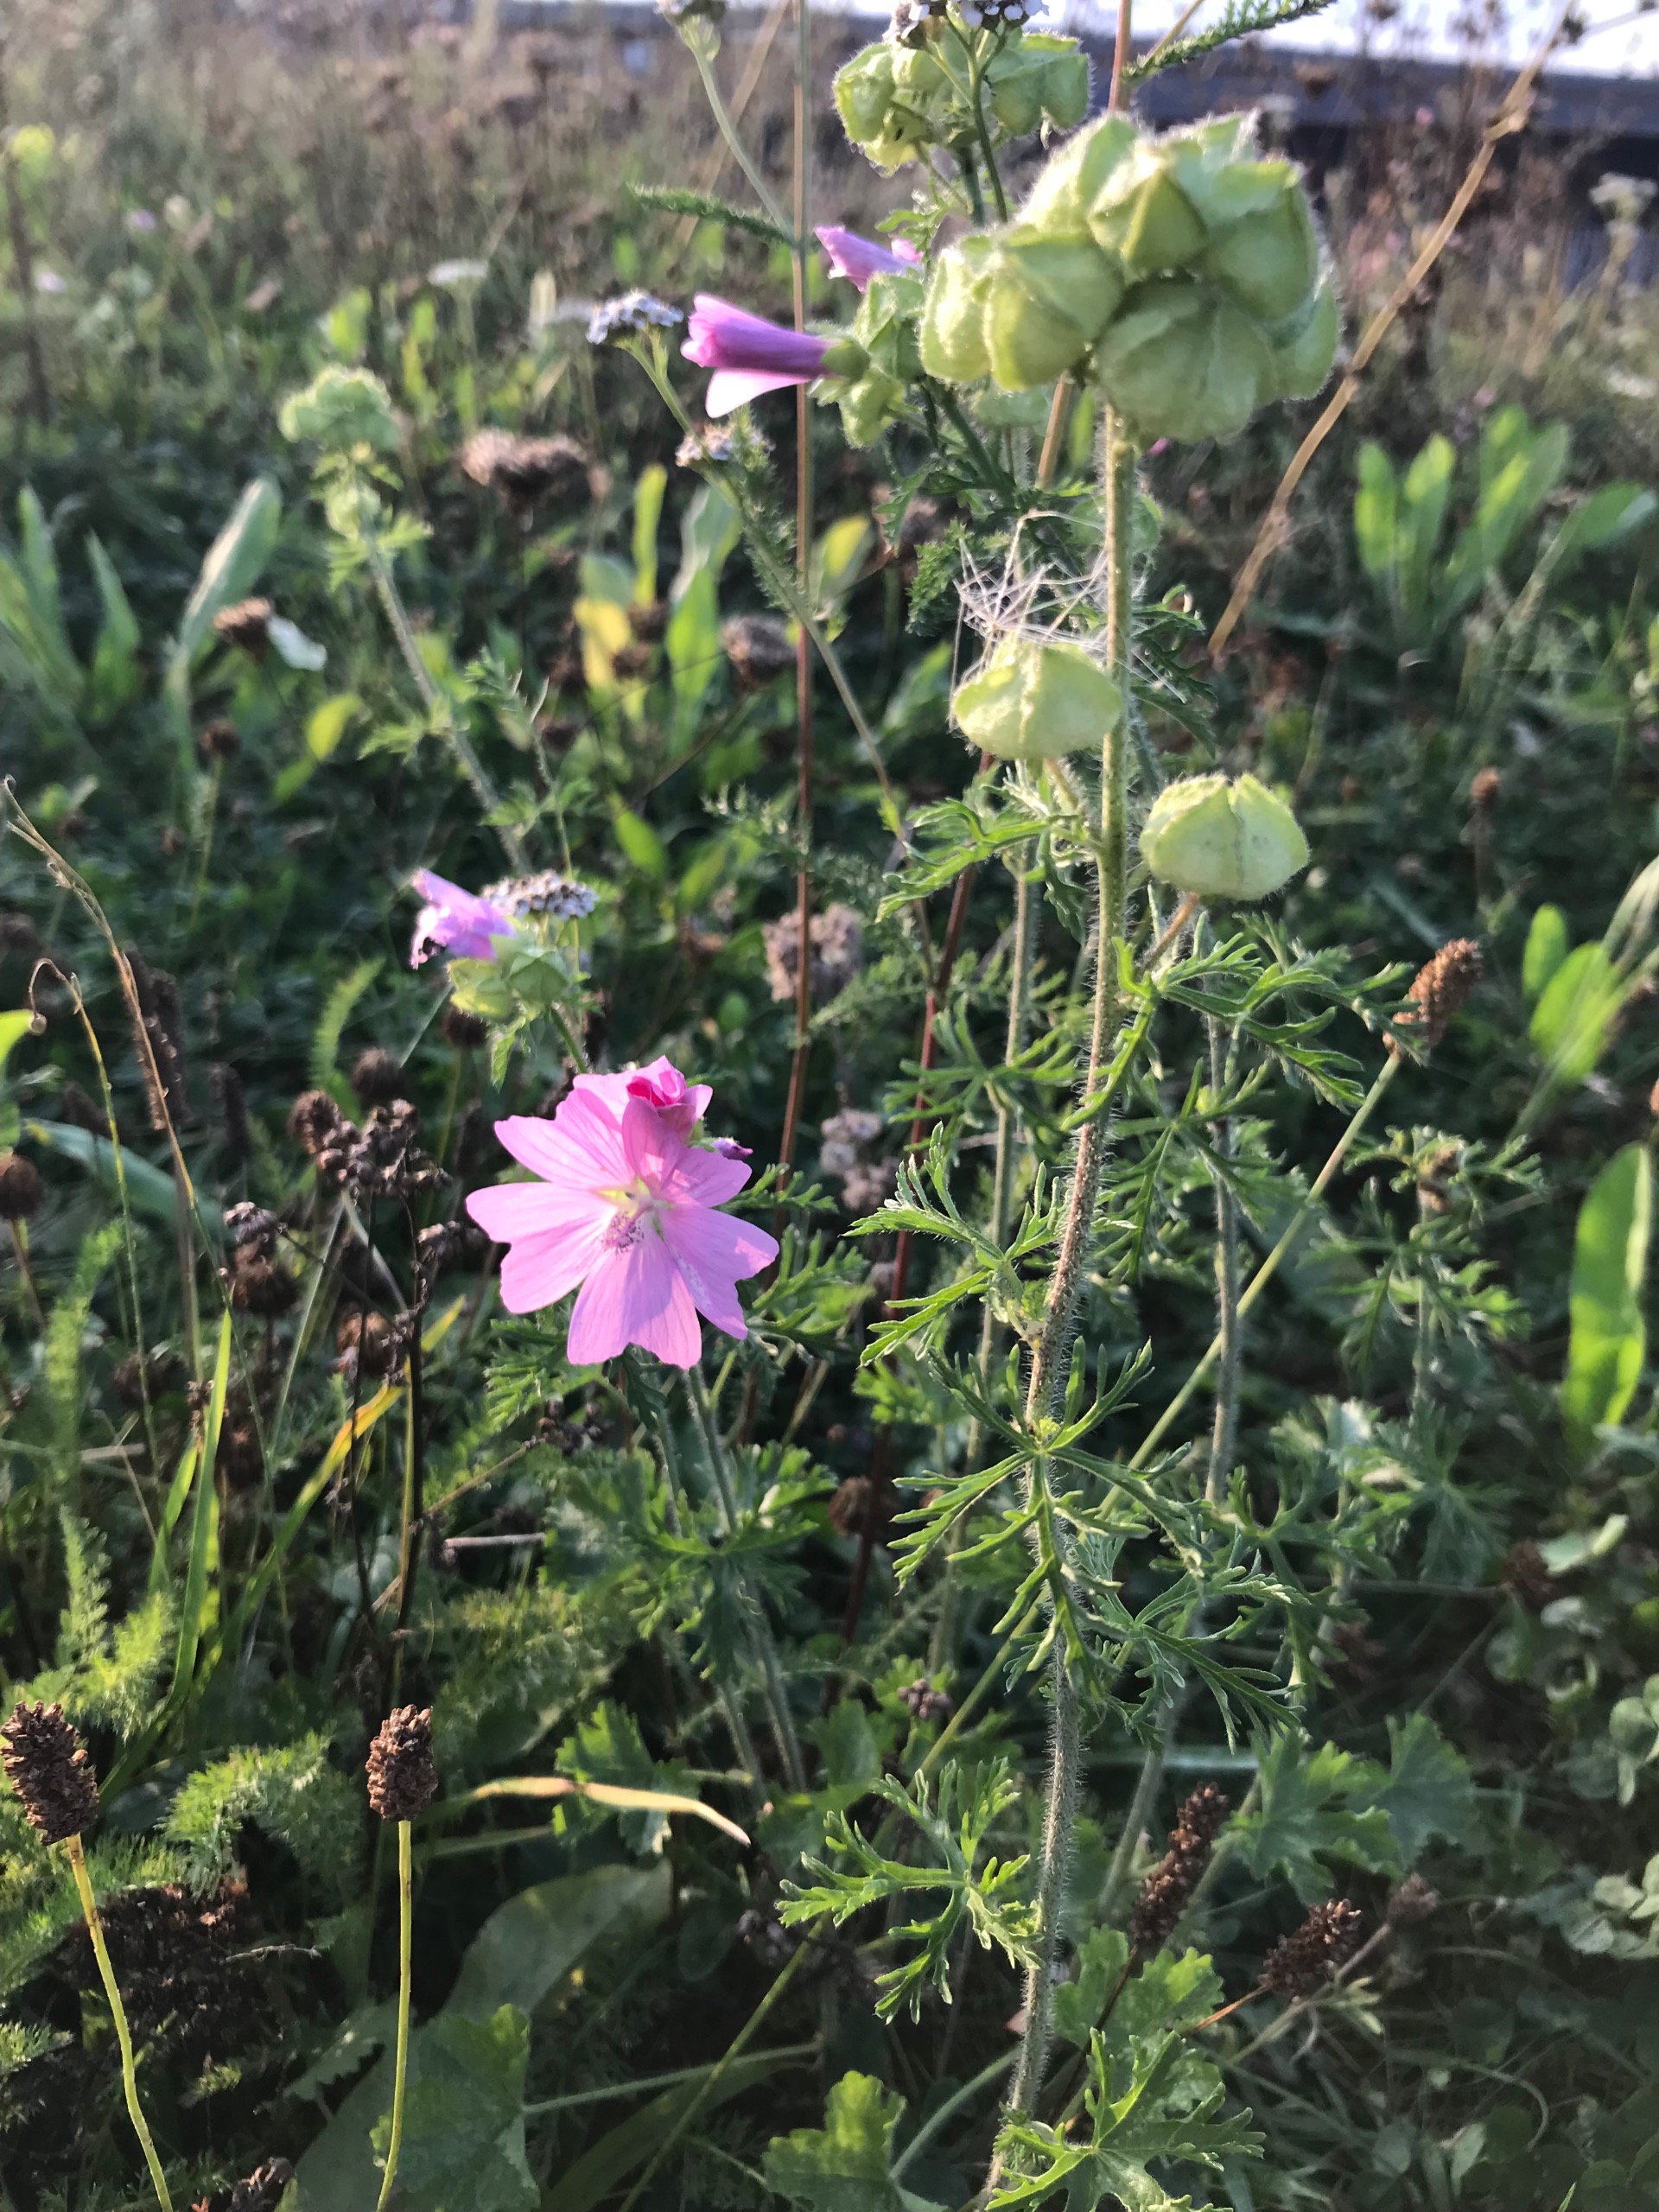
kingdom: Plantae
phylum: Tracheophyta
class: Magnoliopsida
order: Malvales
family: Malvaceae
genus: Malva
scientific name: Malva moschata
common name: Moskus-katost
